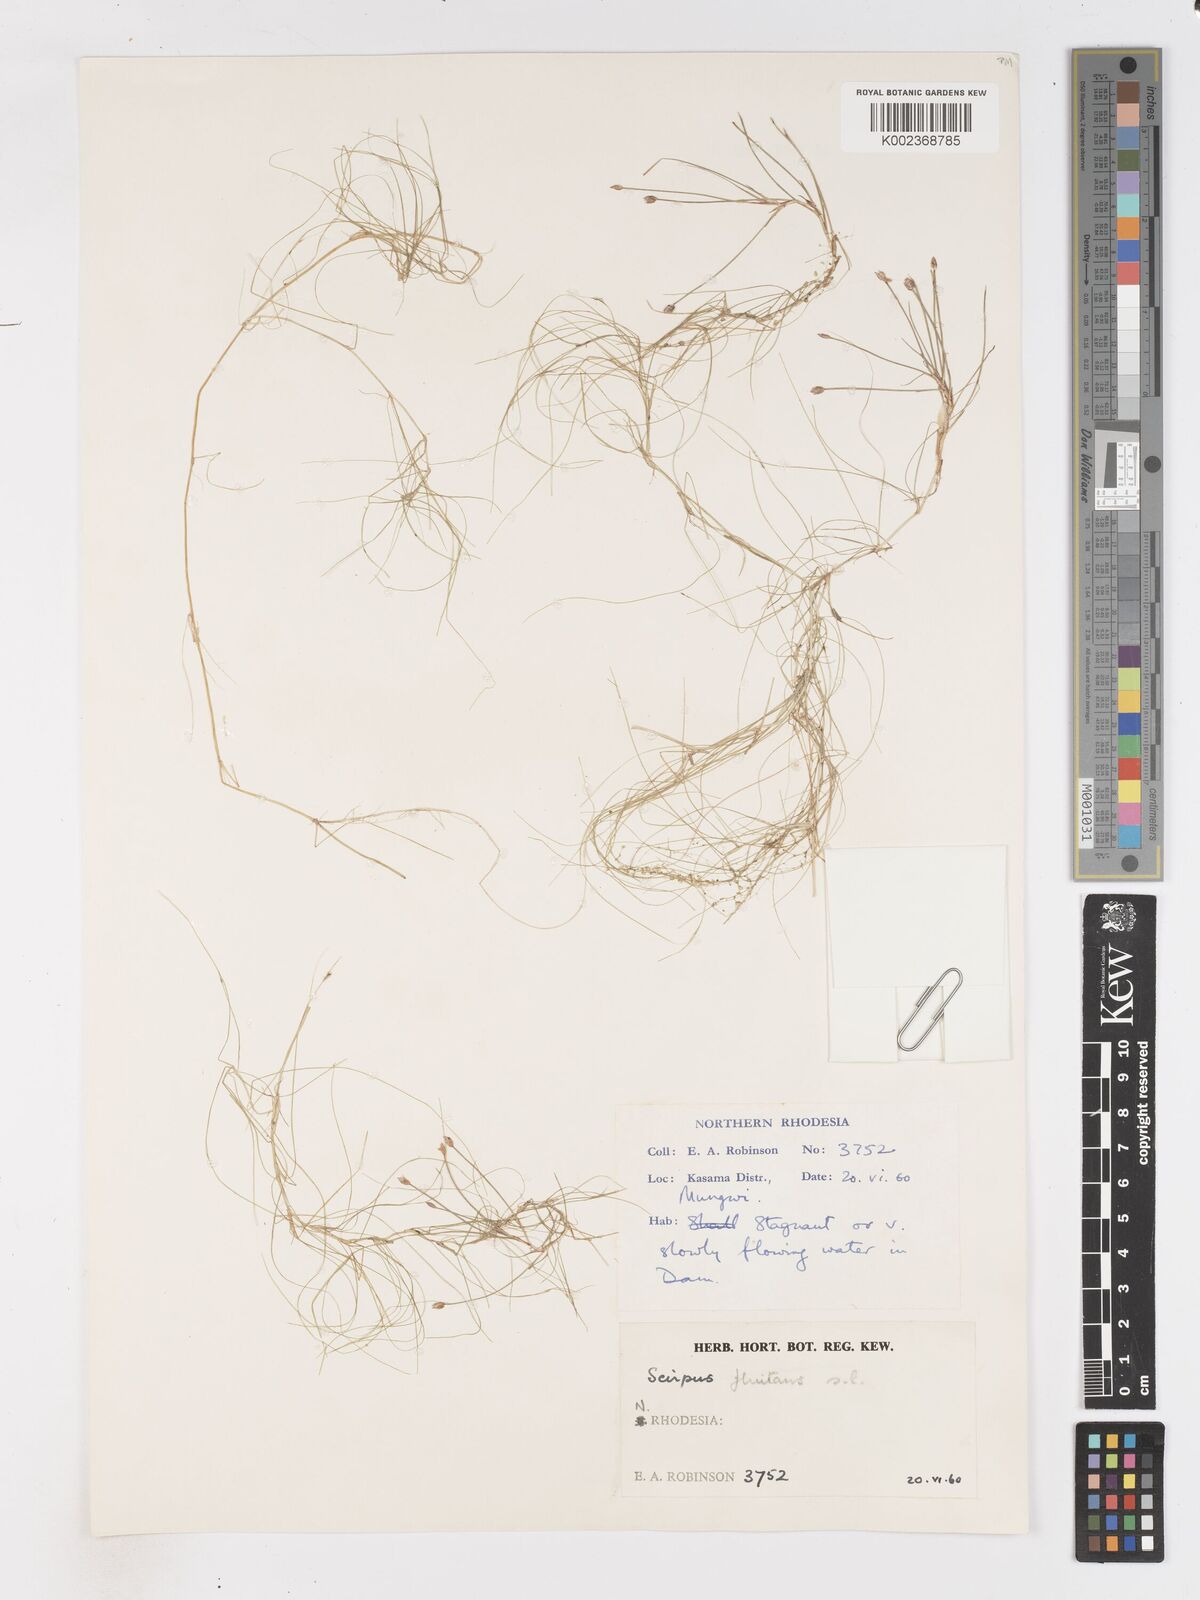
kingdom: Plantae
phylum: Tracheophyta
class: Liliopsida
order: Poales
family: Cyperaceae
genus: Isolepis
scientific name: Isolepis fluitans
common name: Floating club-rush
